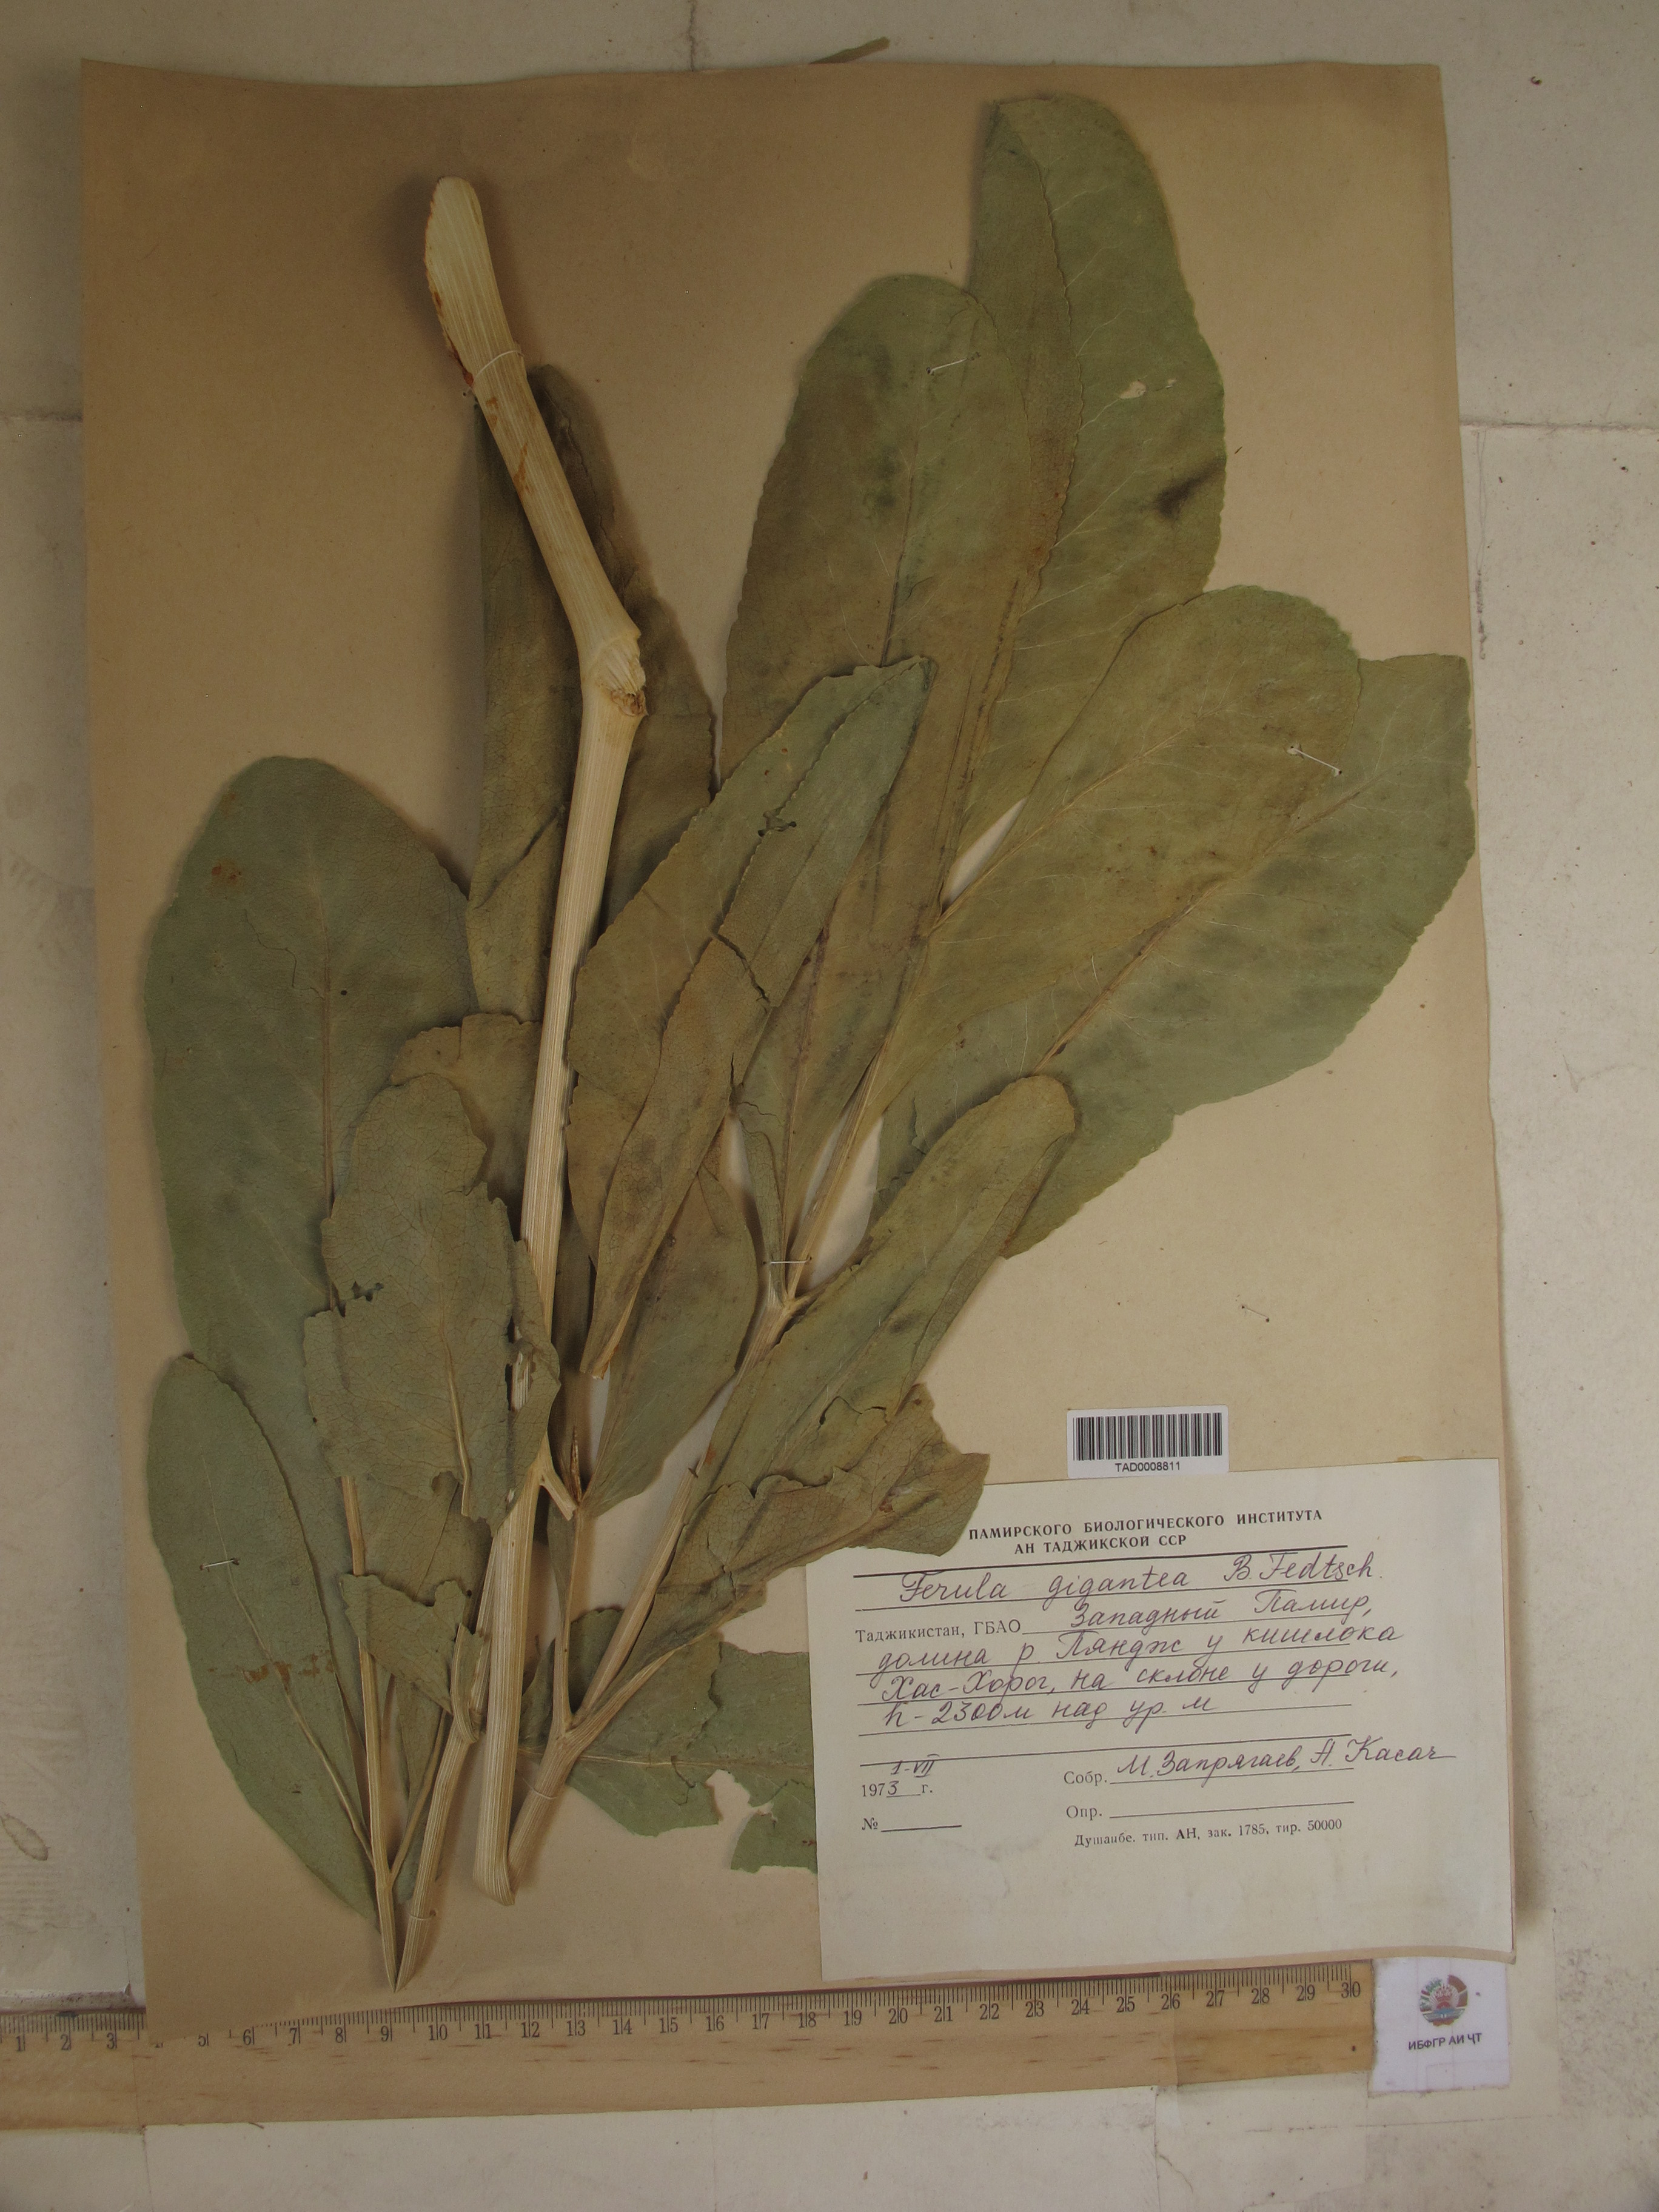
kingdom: Plantae
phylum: Tracheophyta
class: Magnoliopsida
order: Apiales
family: Apiaceae
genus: Ferula
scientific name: Ferula gigantea
